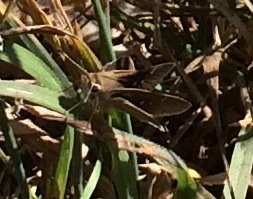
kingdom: Animalia
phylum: Arthropoda
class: Insecta
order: Lepidoptera
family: Hesperiidae
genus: Lerodea
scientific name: Lerodea eufala
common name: Eufala Skipper
